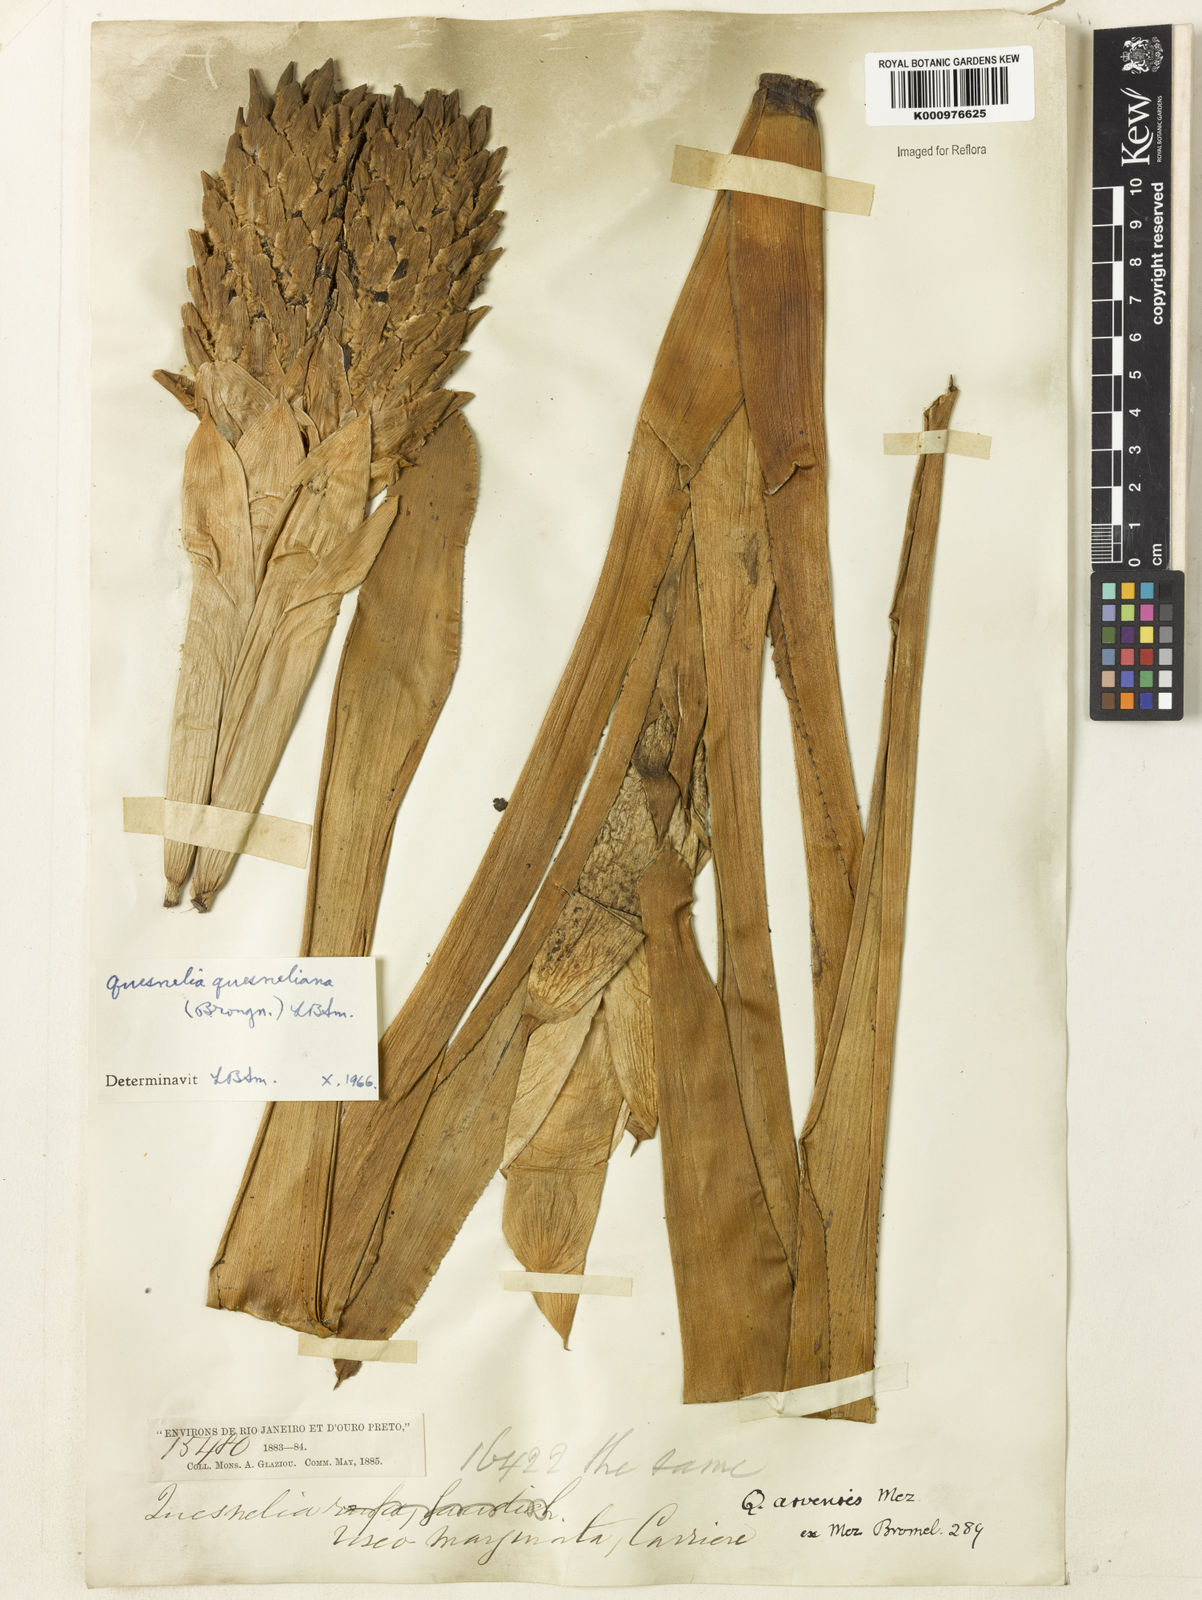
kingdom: Plantae
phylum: Tracheophyta
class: Liliopsida
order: Poales
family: Bromeliaceae
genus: Quesnelia
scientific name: Quesnelia quesneliana
